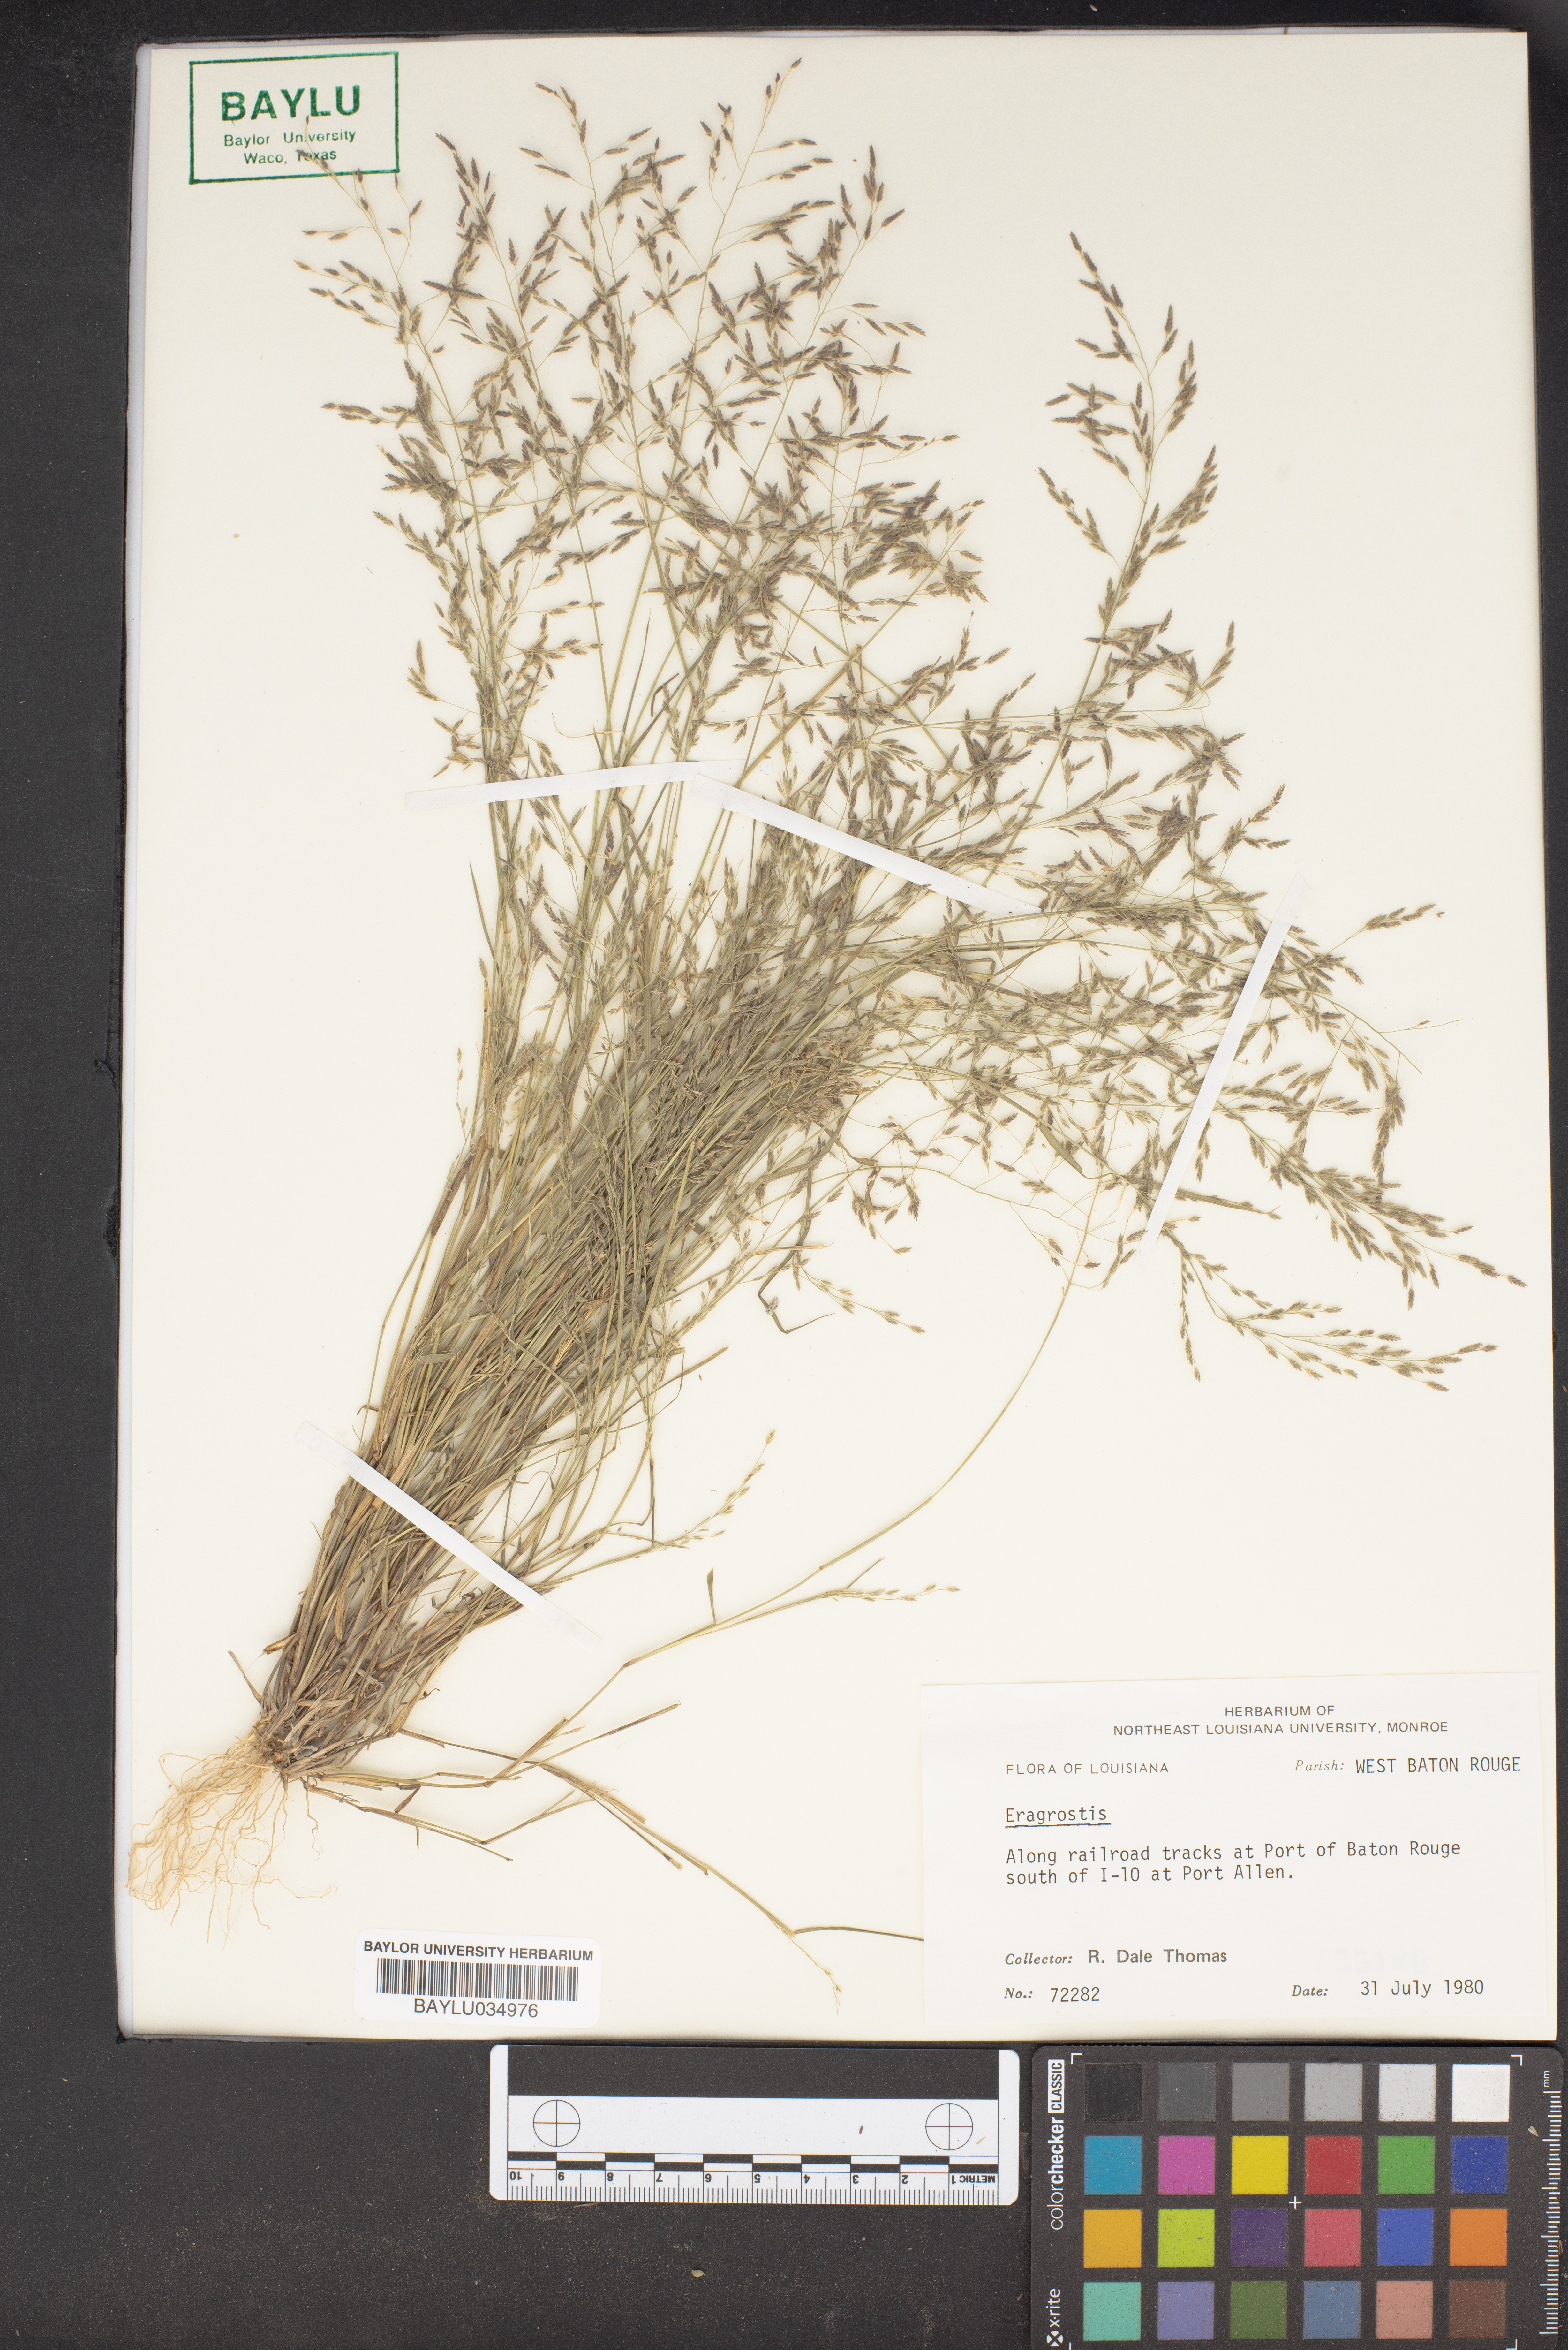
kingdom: Plantae
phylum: Tracheophyta
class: Liliopsida
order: Poales
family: Poaceae
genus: Eragrostis
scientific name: Eragrostis
